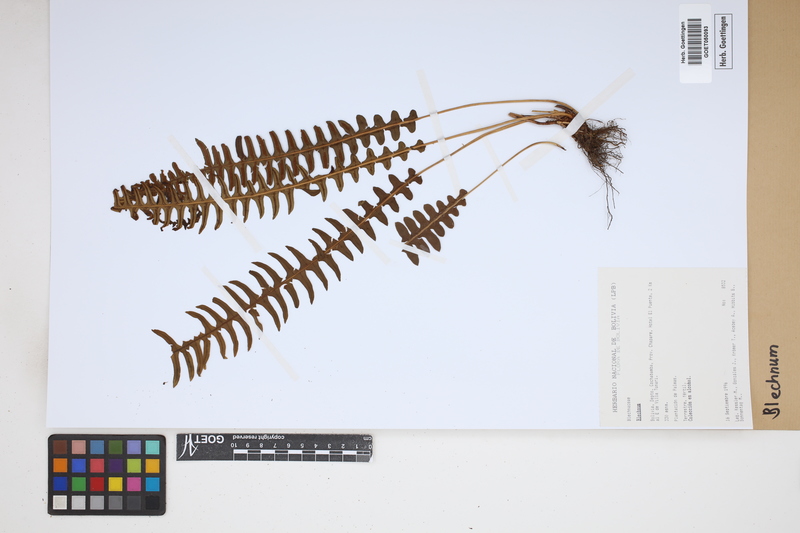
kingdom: Plantae
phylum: Tracheophyta
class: Polypodiopsida
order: Polypodiales
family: Blechnaceae
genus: Blechnum
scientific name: Blechnum
